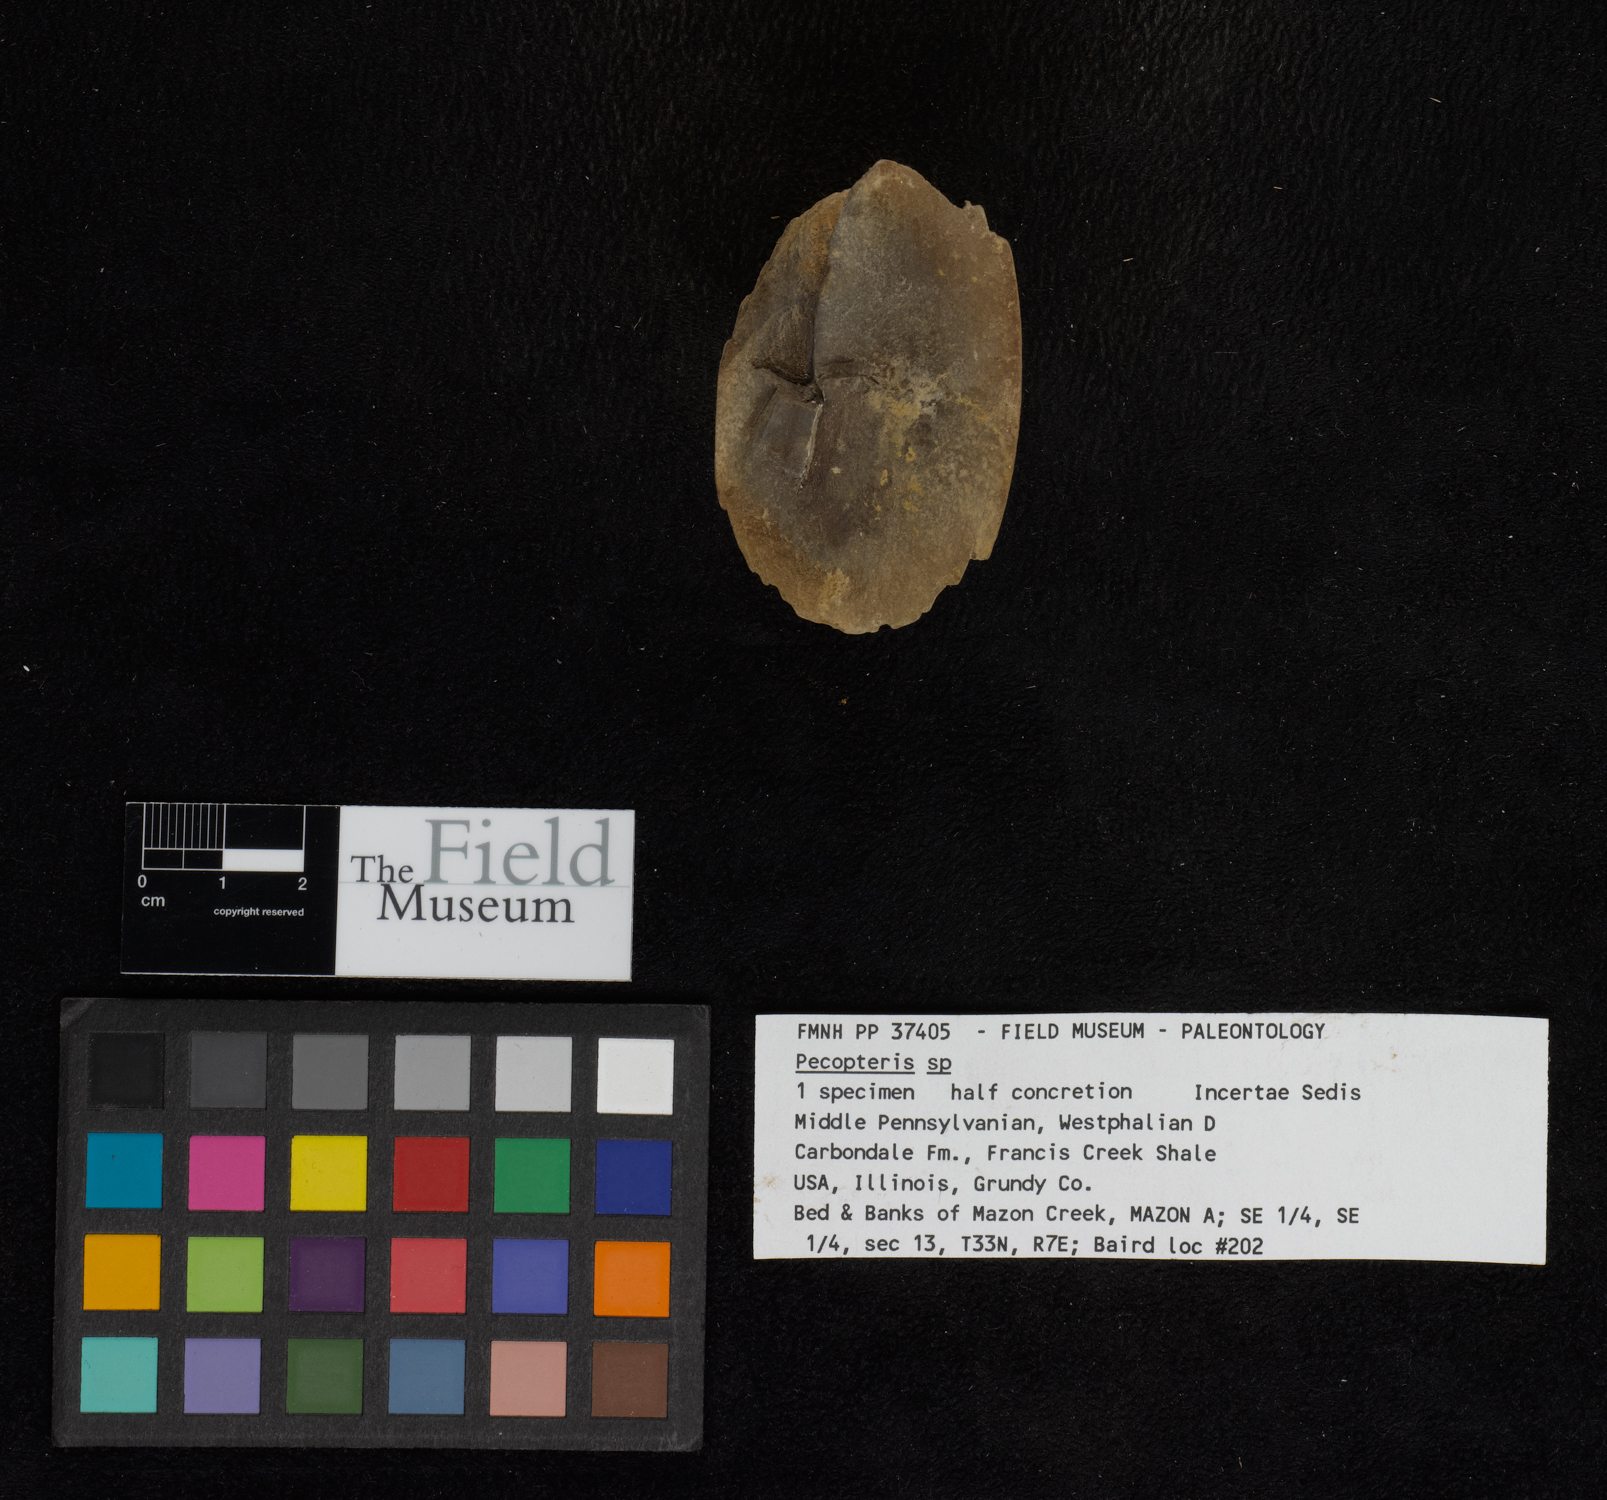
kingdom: Plantae
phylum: Tracheophyta
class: Polypodiopsida
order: Marattiales
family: Asterothecaceae
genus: Pecopteris
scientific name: Pecopteris
